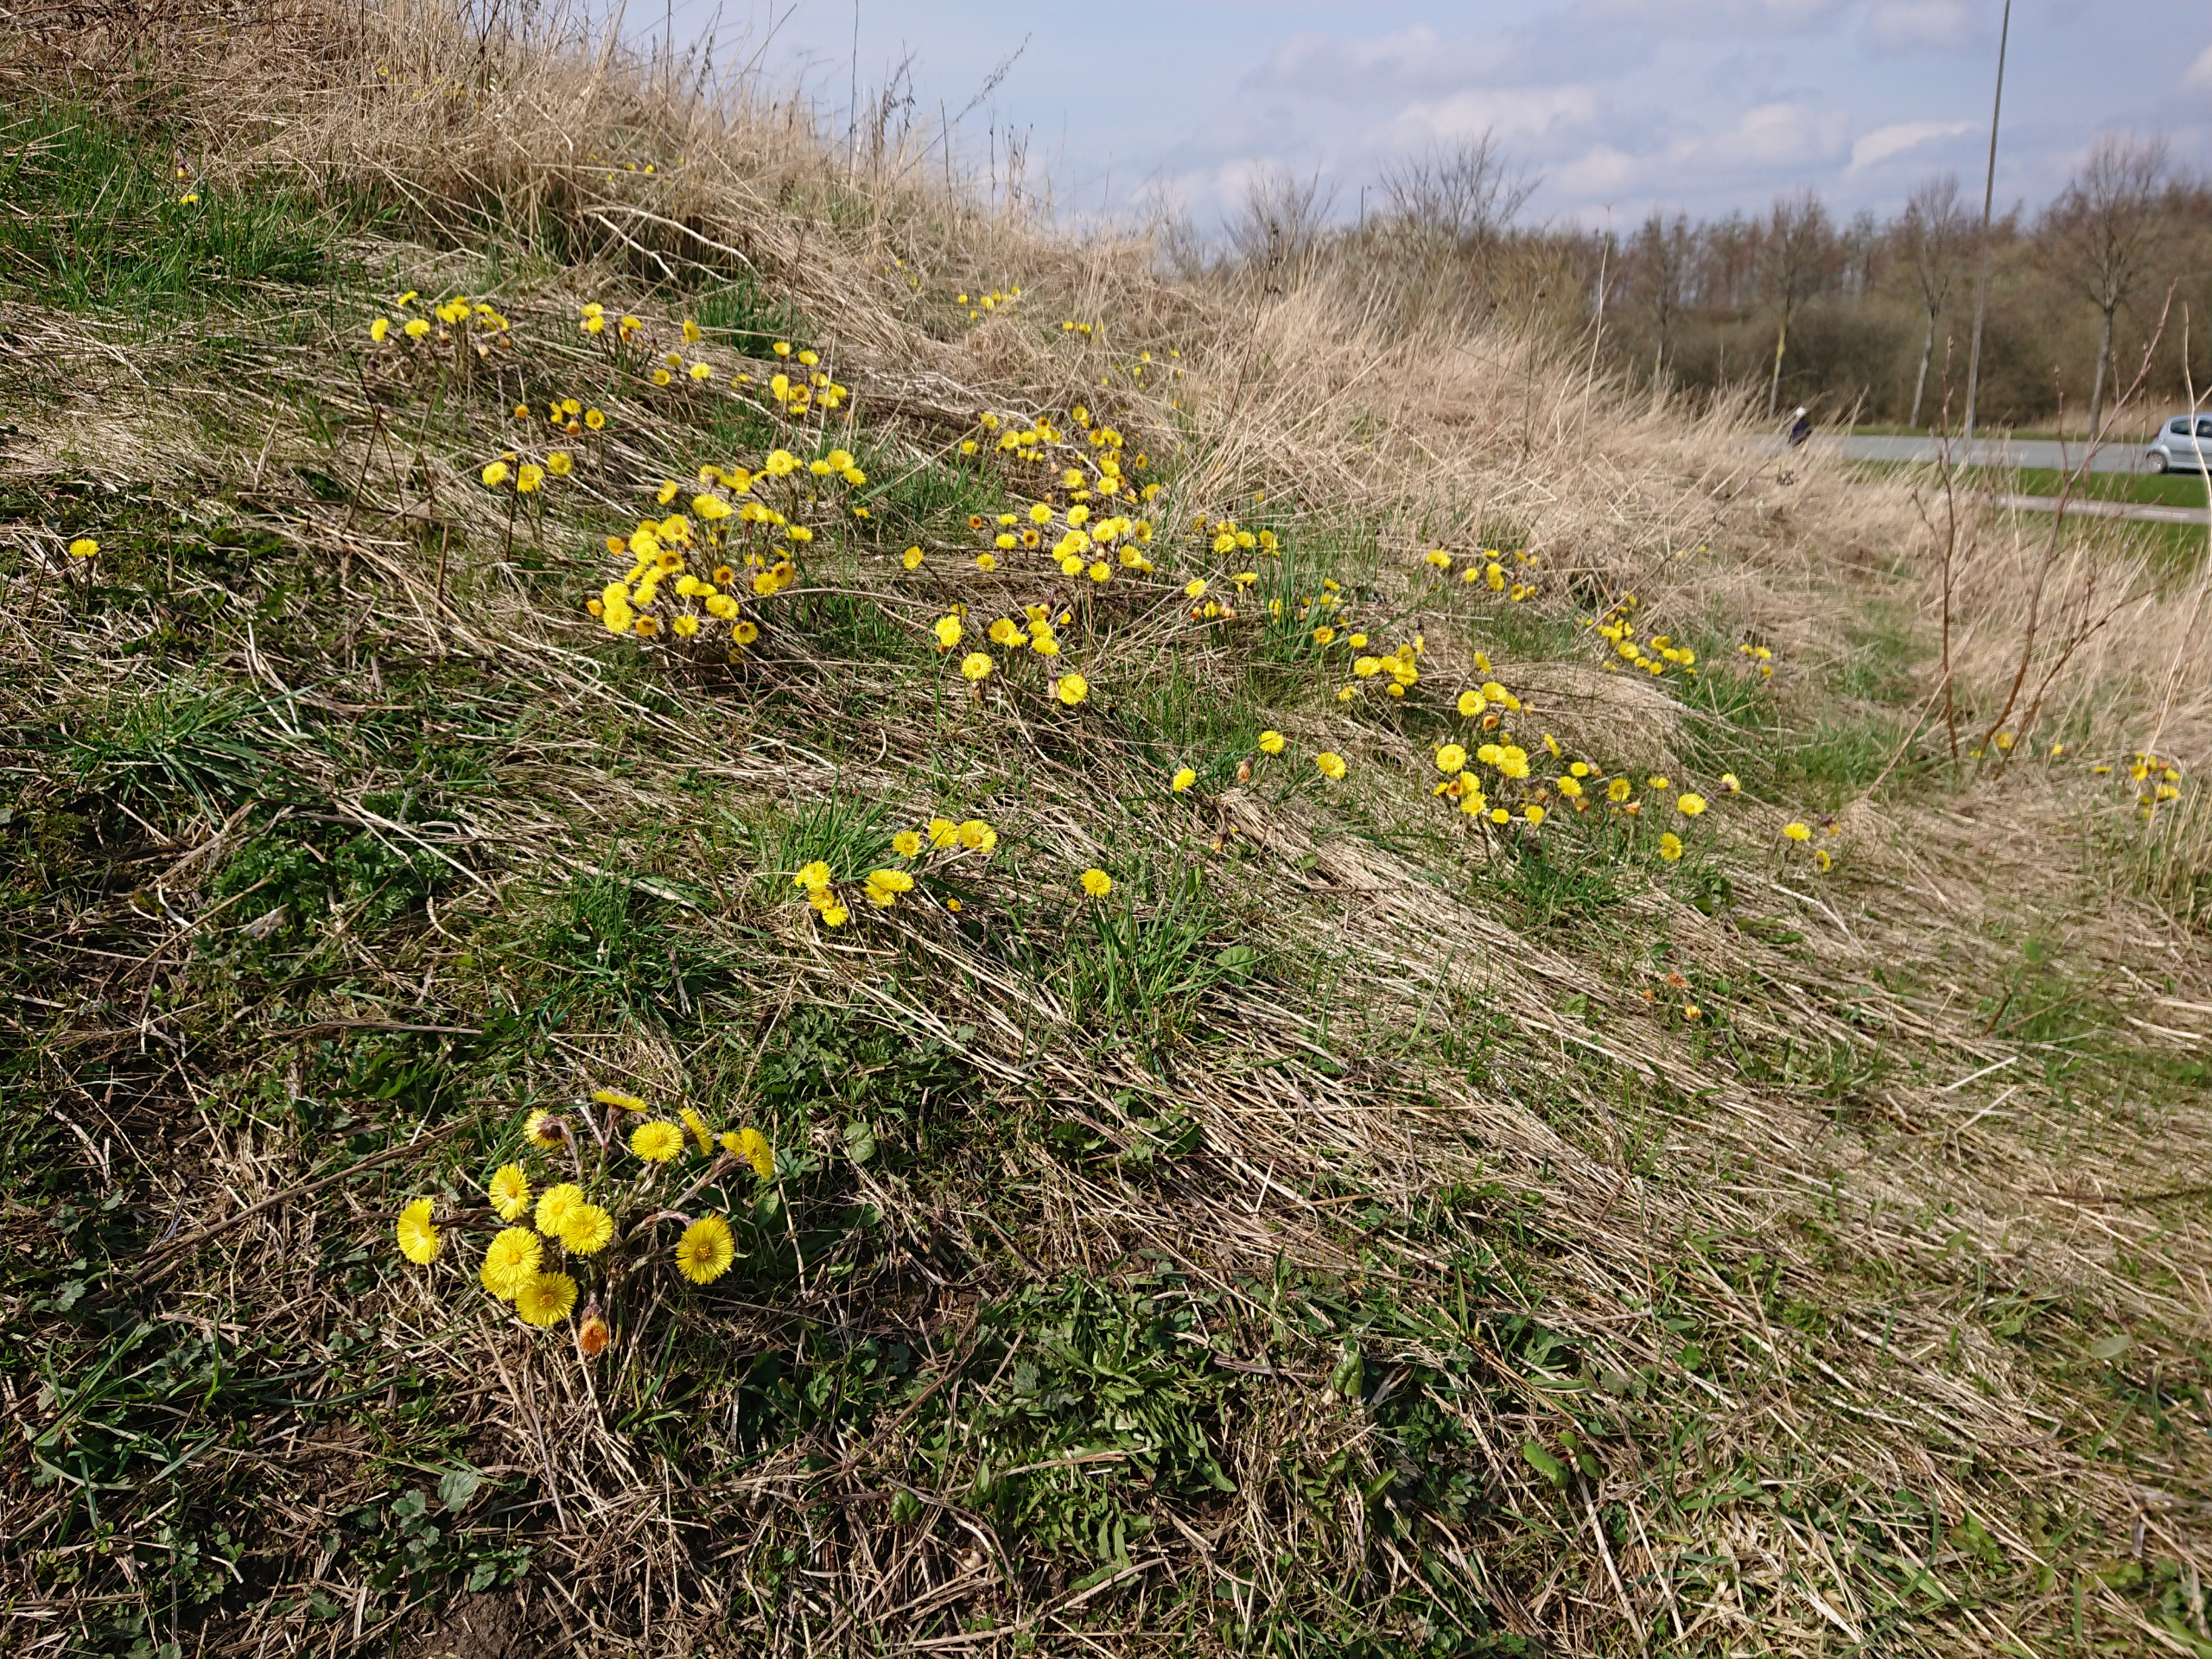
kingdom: Plantae
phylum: Tracheophyta
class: Magnoliopsida
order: Asterales
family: Asteraceae
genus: Tussilago
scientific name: Tussilago farfara
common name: Følfod
